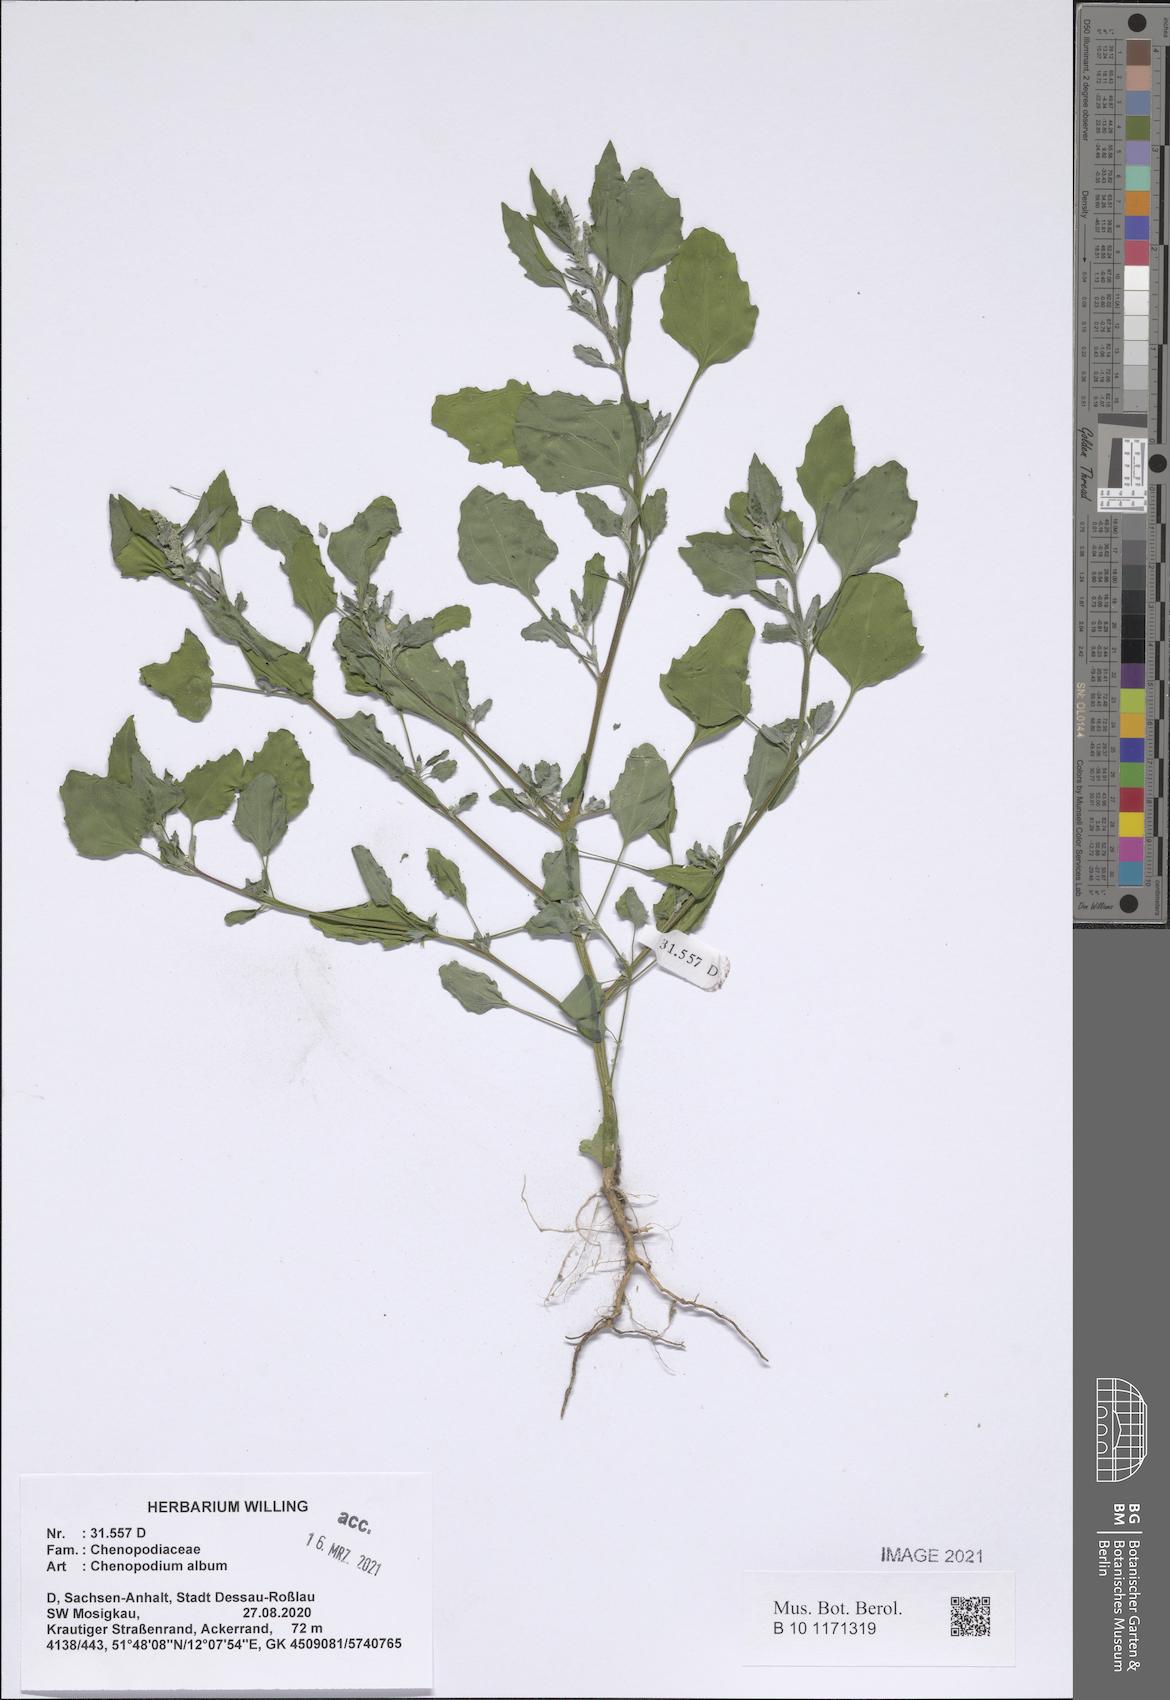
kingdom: Plantae
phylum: Tracheophyta
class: Magnoliopsida
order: Caryophyllales
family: Amaranthaceae
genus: Chenopodium
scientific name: Chenopodium album
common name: Fat-hen
